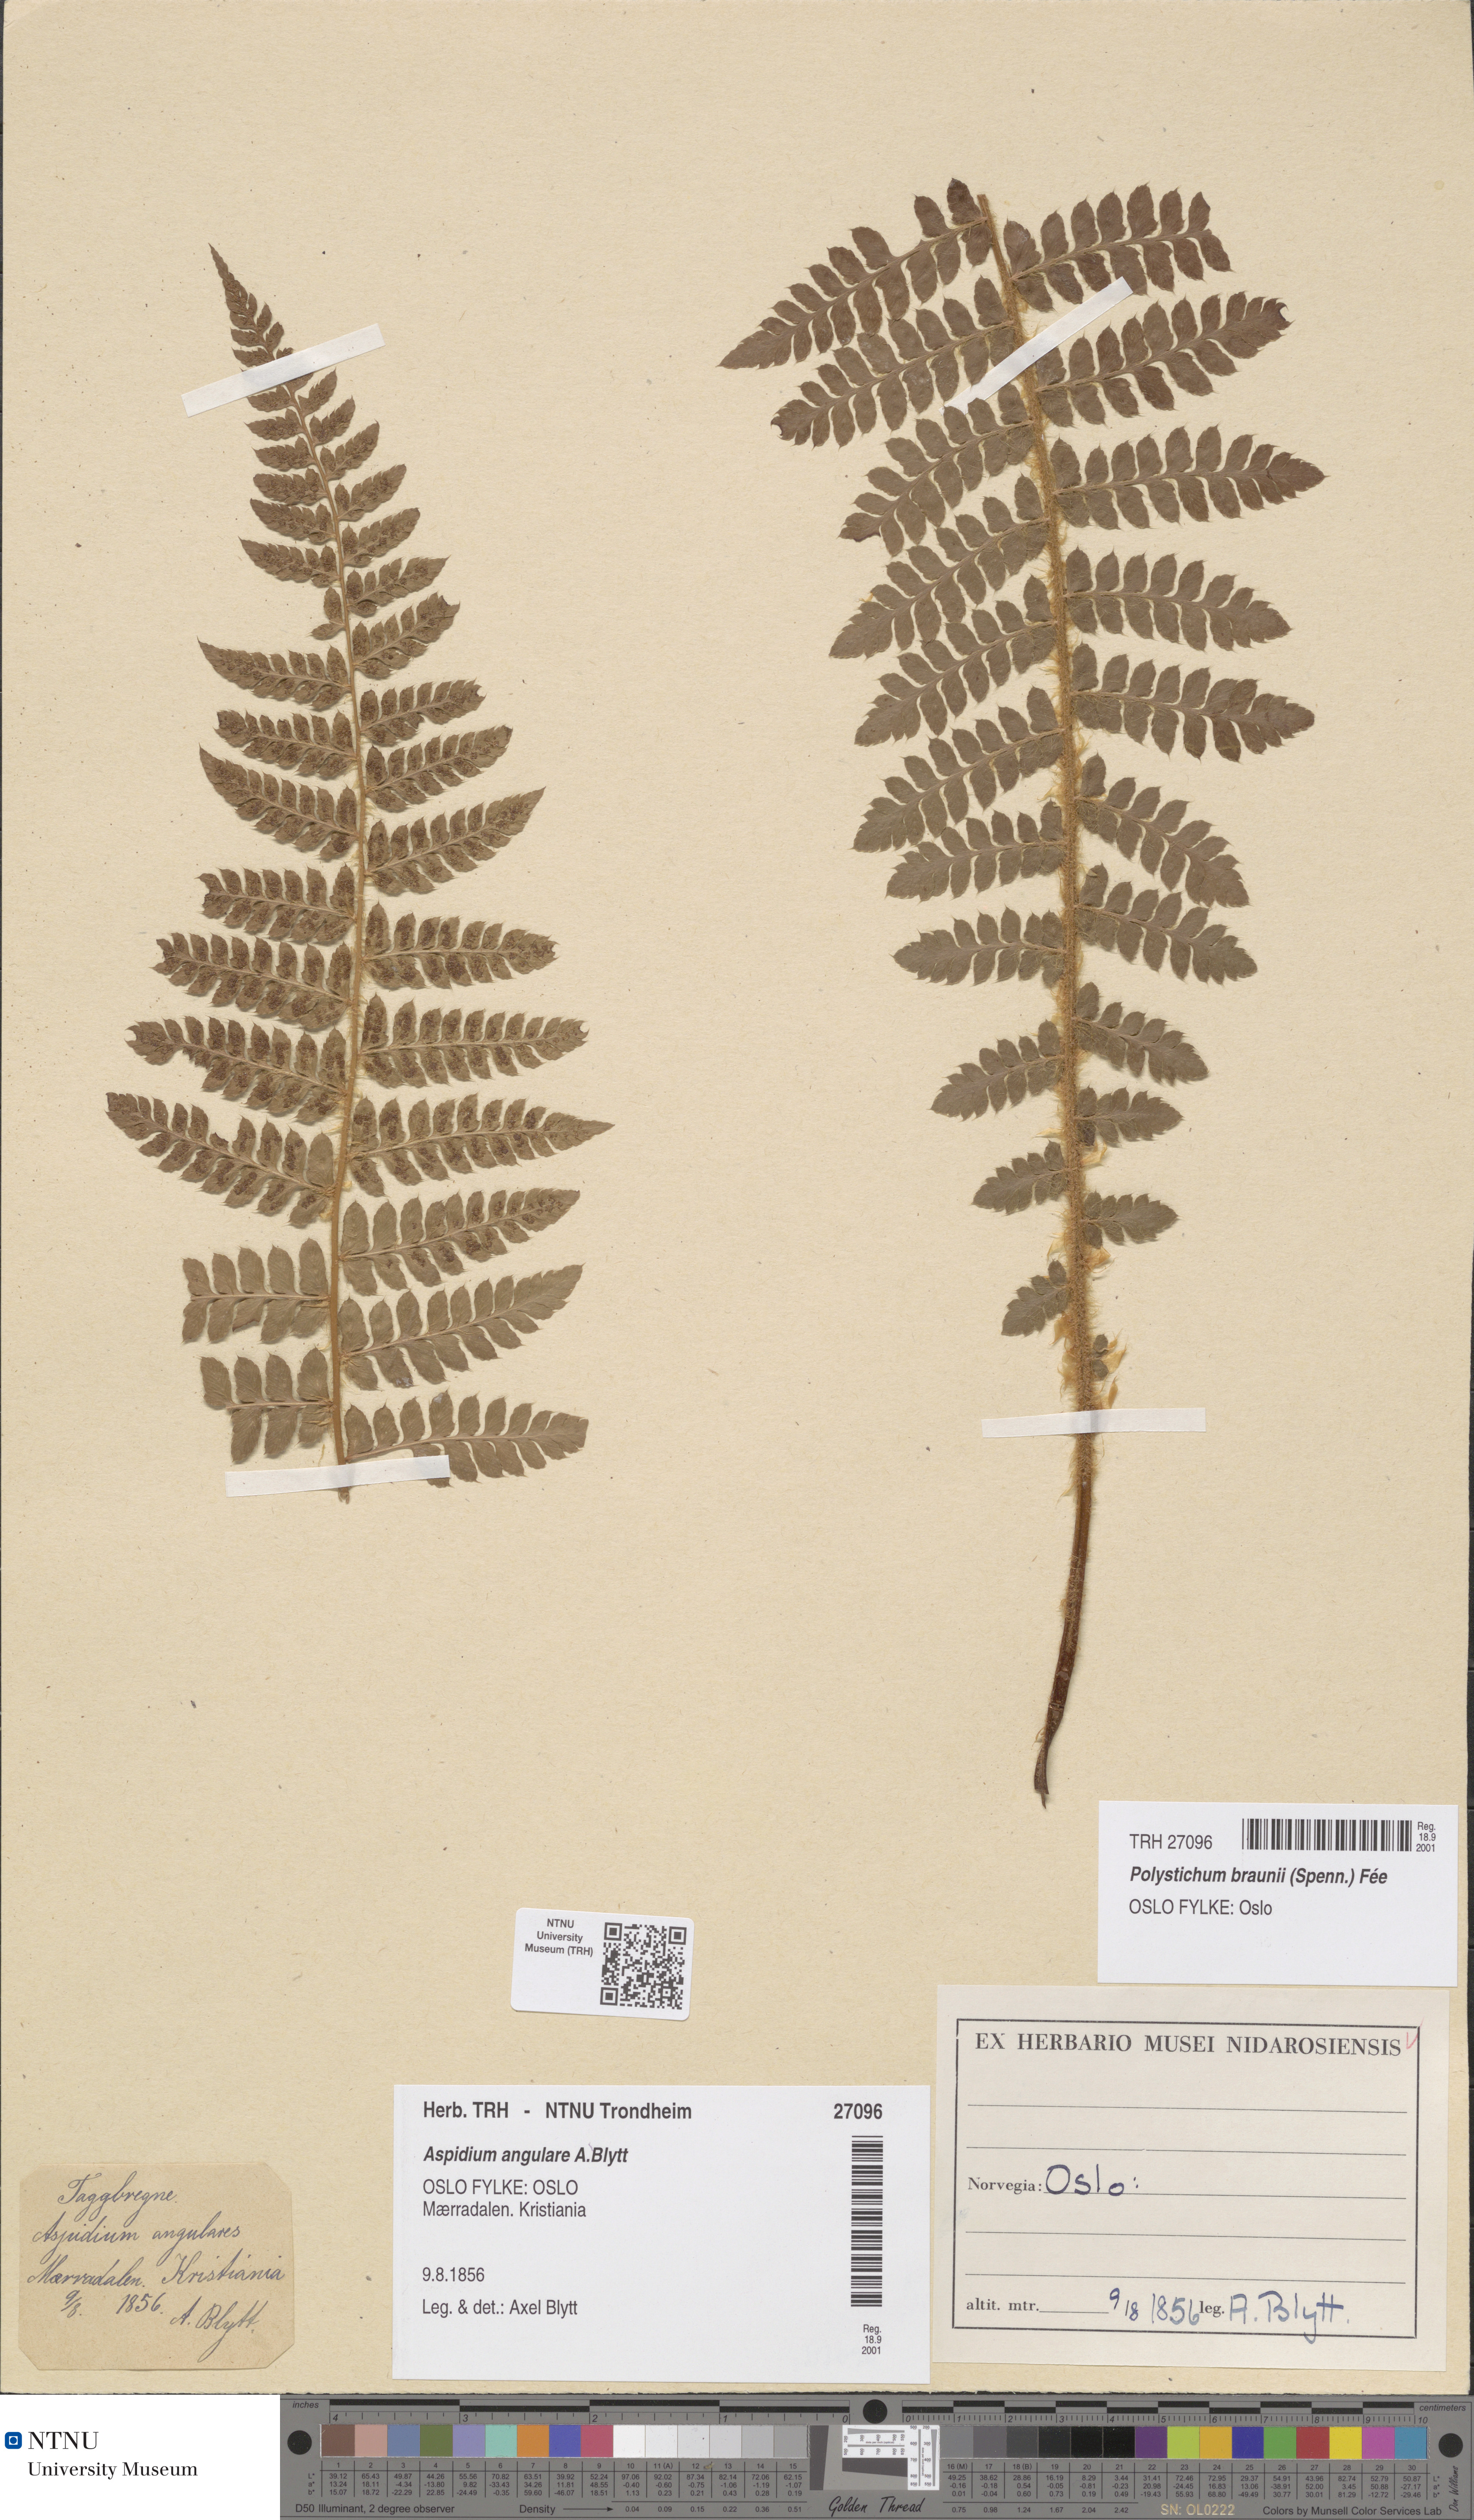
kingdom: Plantae
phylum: Tracheophyta
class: Polypodiopsida
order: Polypodiales
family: Dryopteridaceae
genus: Polystichum
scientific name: Polystichum braunii
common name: Braun's holly fern
